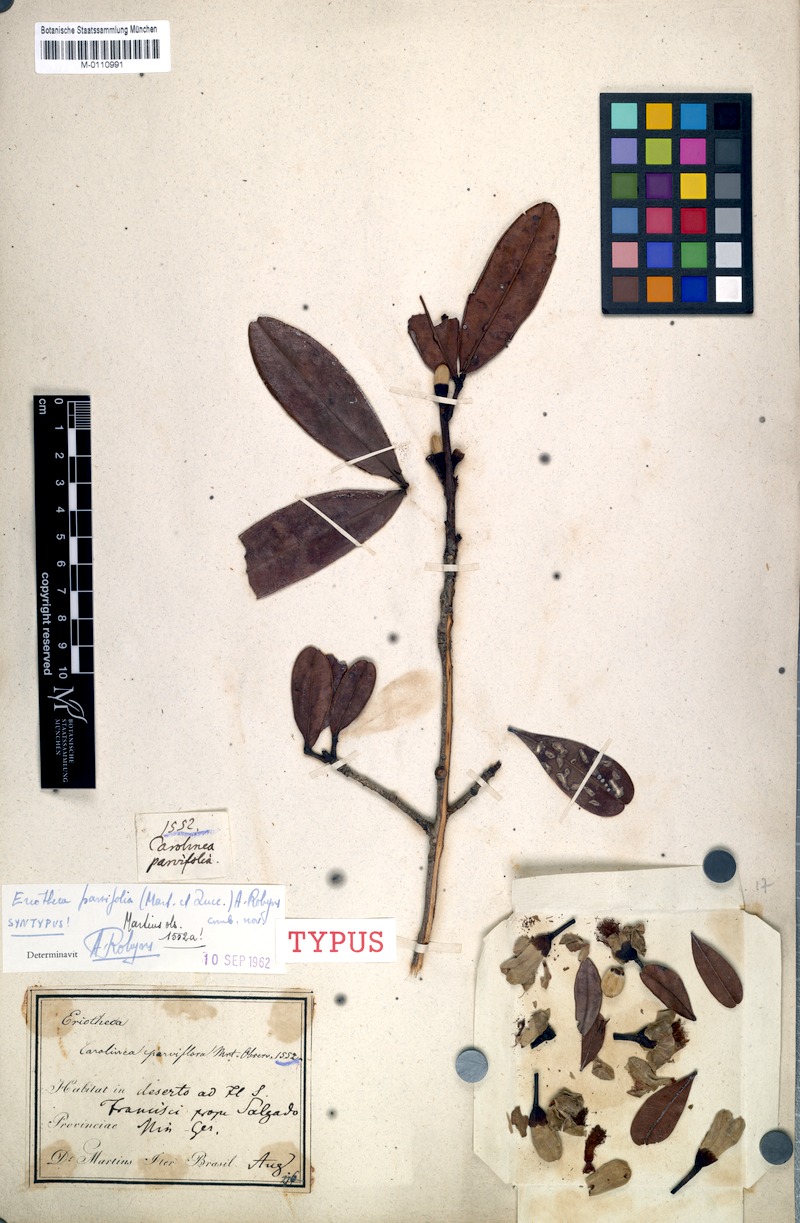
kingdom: Plantae
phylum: Tracheophyta
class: Magnoliopsida
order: Malvales
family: Malvaceae
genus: Eriotheca
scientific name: Eriotheca parvifolia
